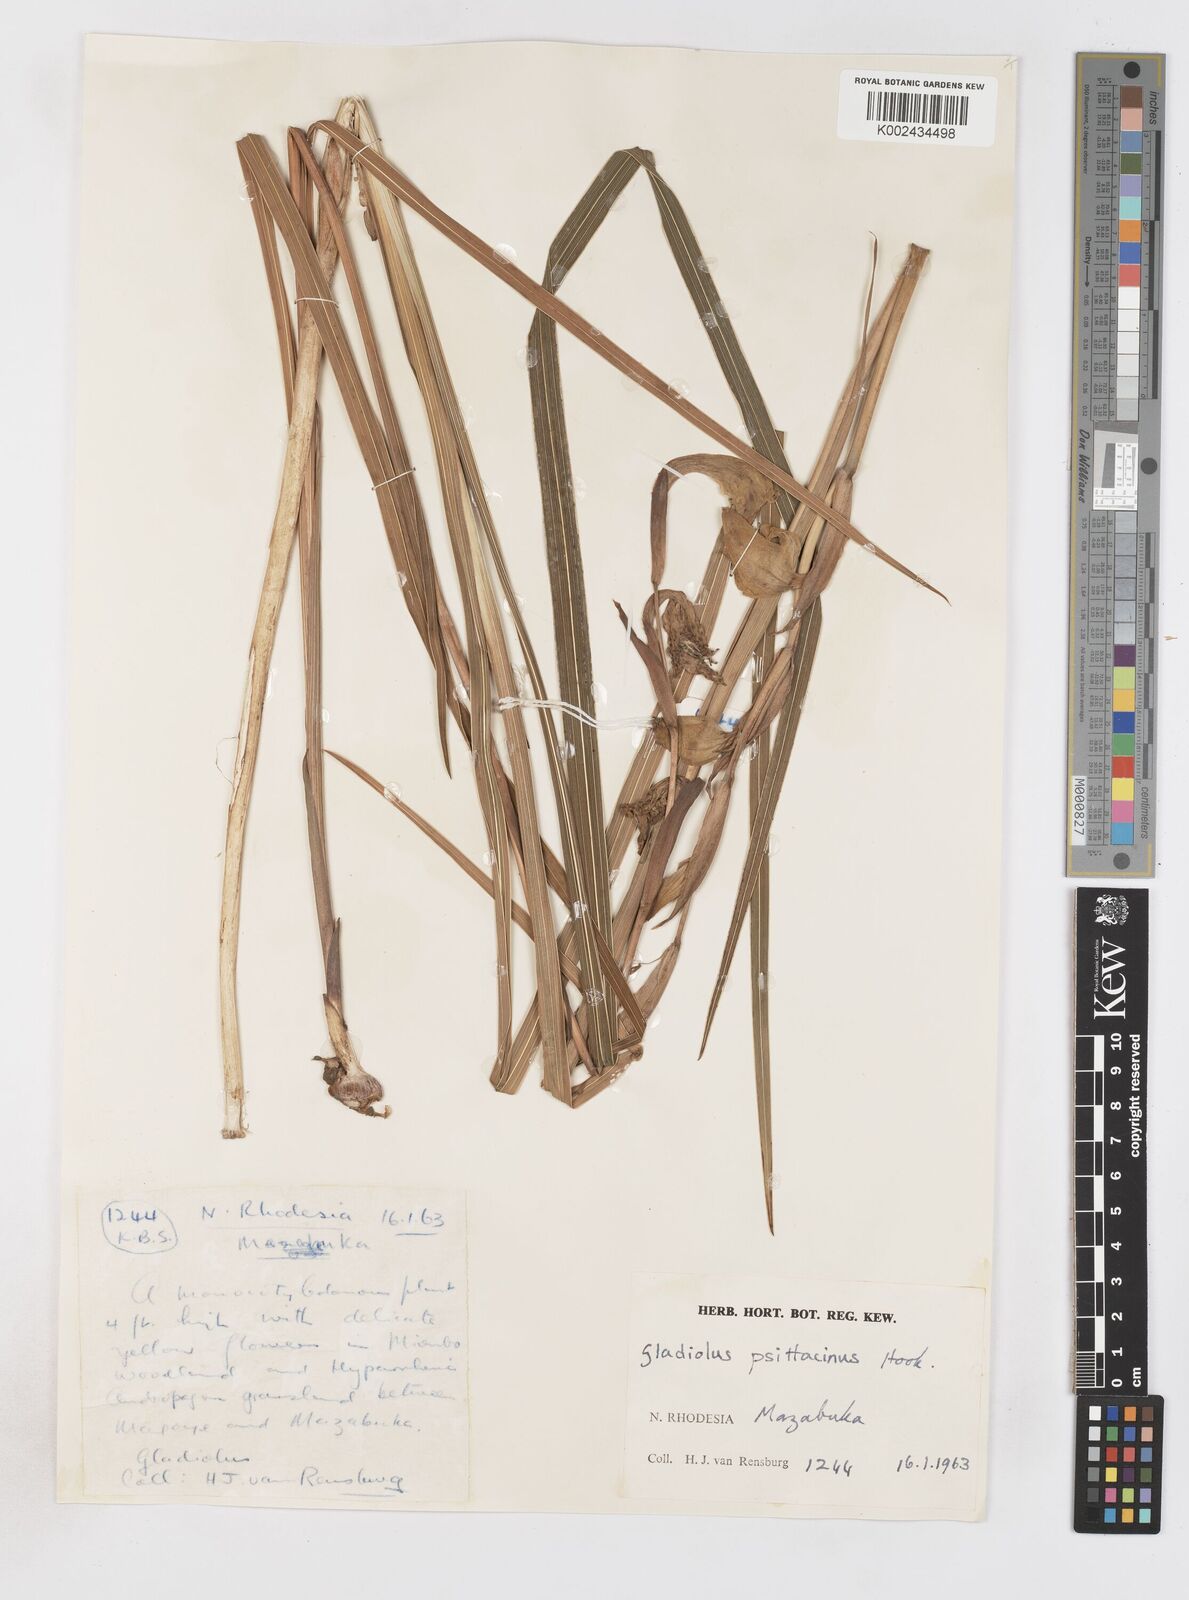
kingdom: Plantae
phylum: Tracheophyta
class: Liliopsida
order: Asparagales
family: Iridaceae
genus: Gladiolus
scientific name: Gladiolus dalenii
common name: Cornflag
